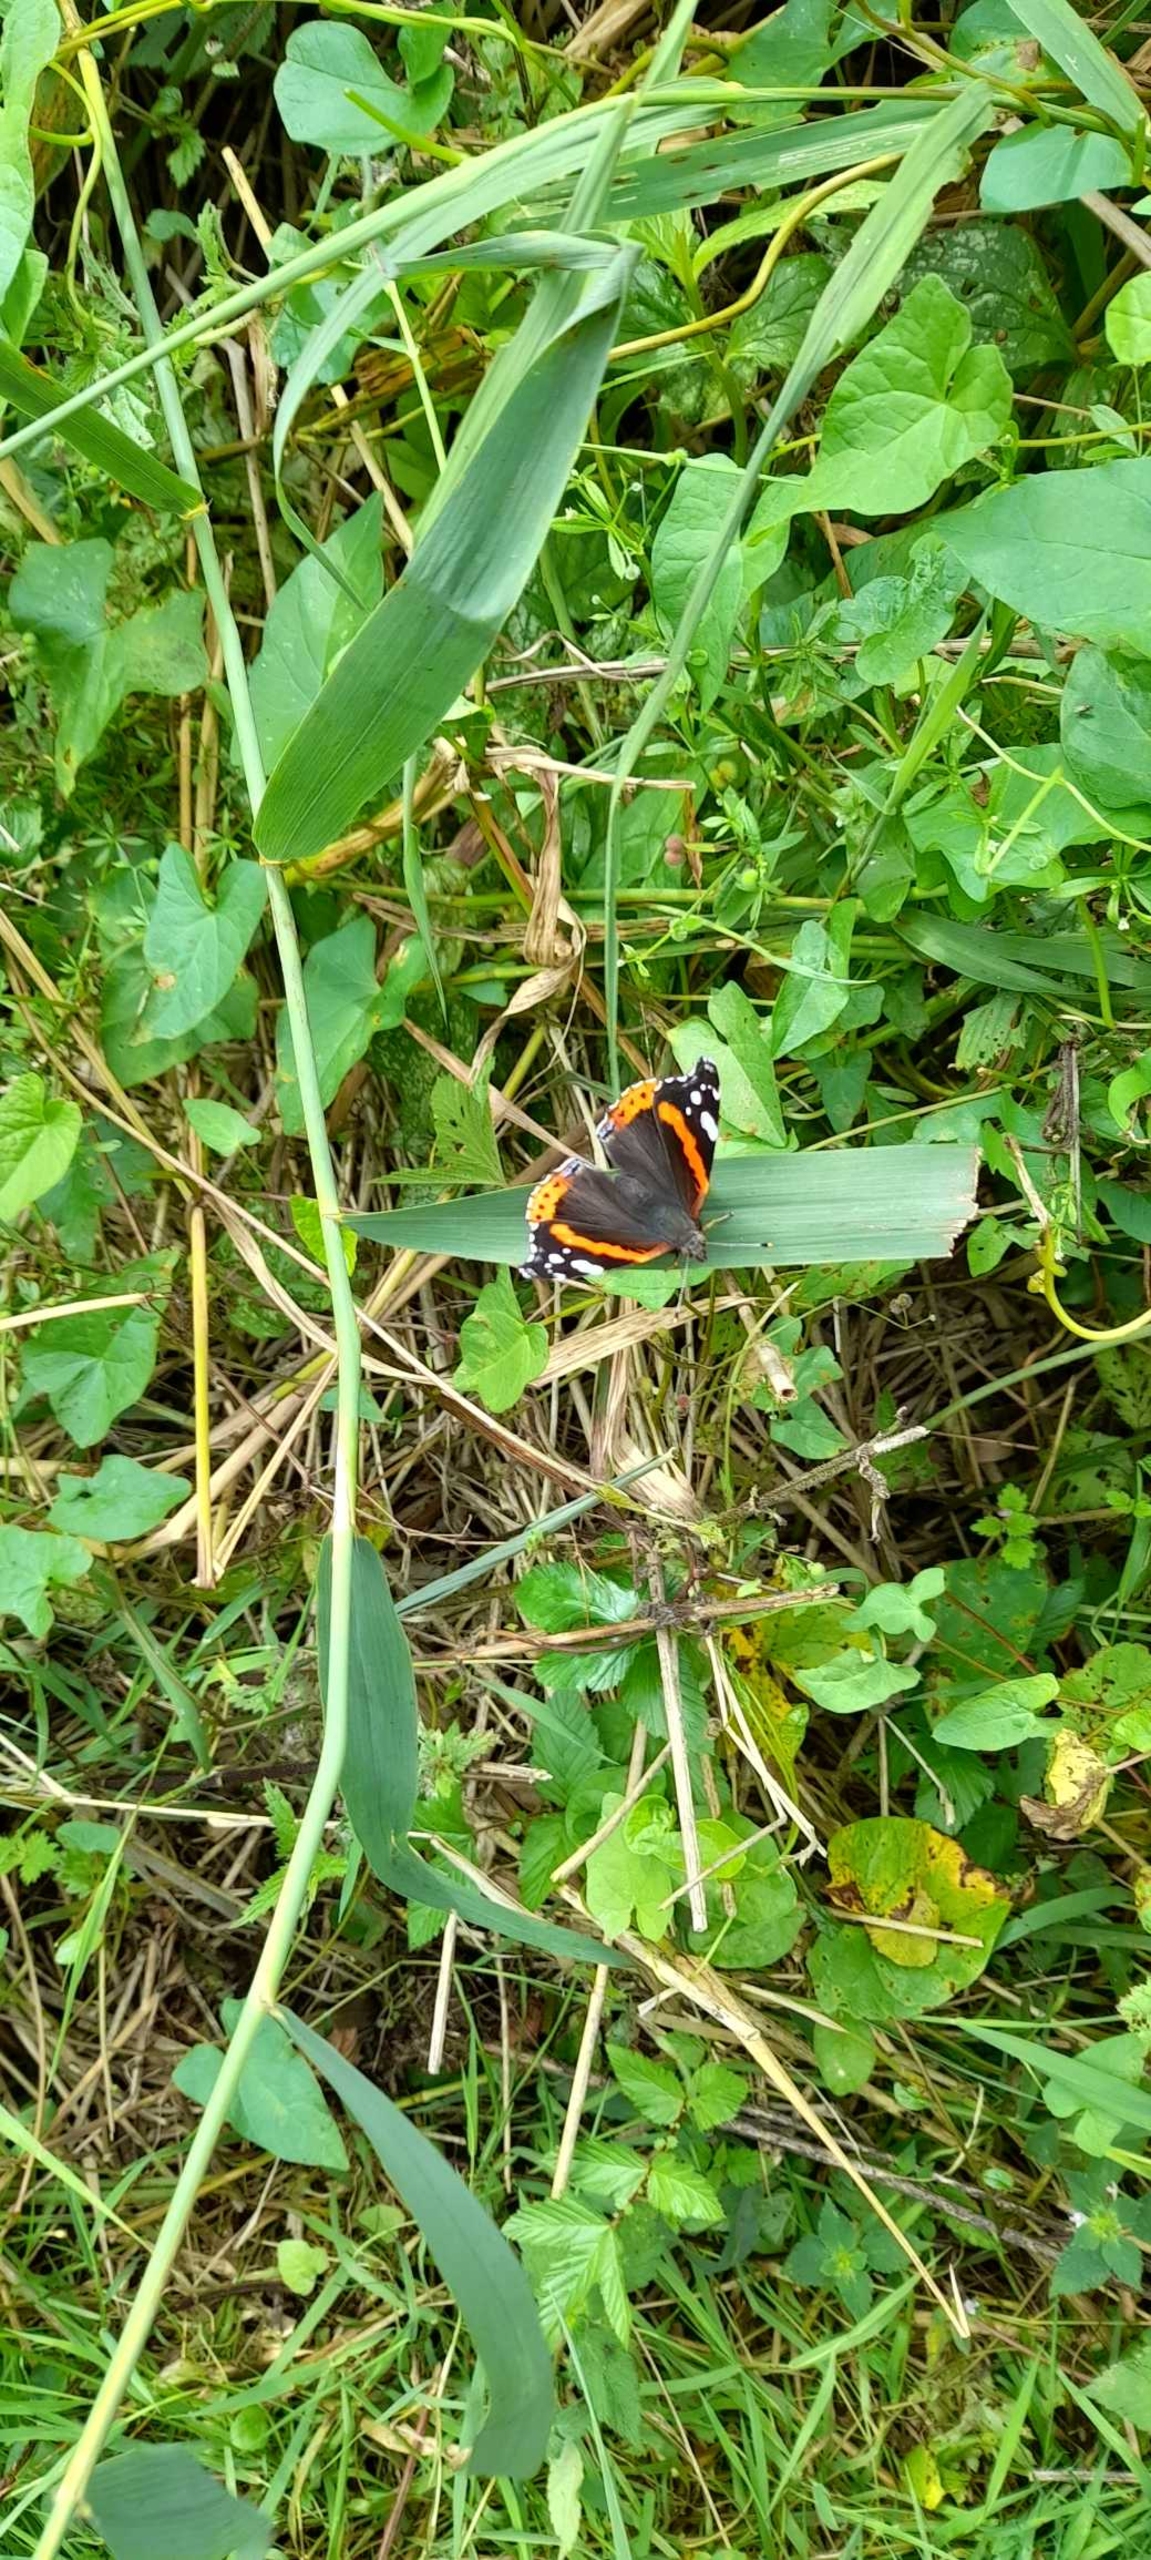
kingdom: Animalia
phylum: Arthropoda
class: Insecta
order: Lepidoptera
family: Nymphalidae
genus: Vanessa
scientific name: Vanessa atalanta
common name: Admiral
